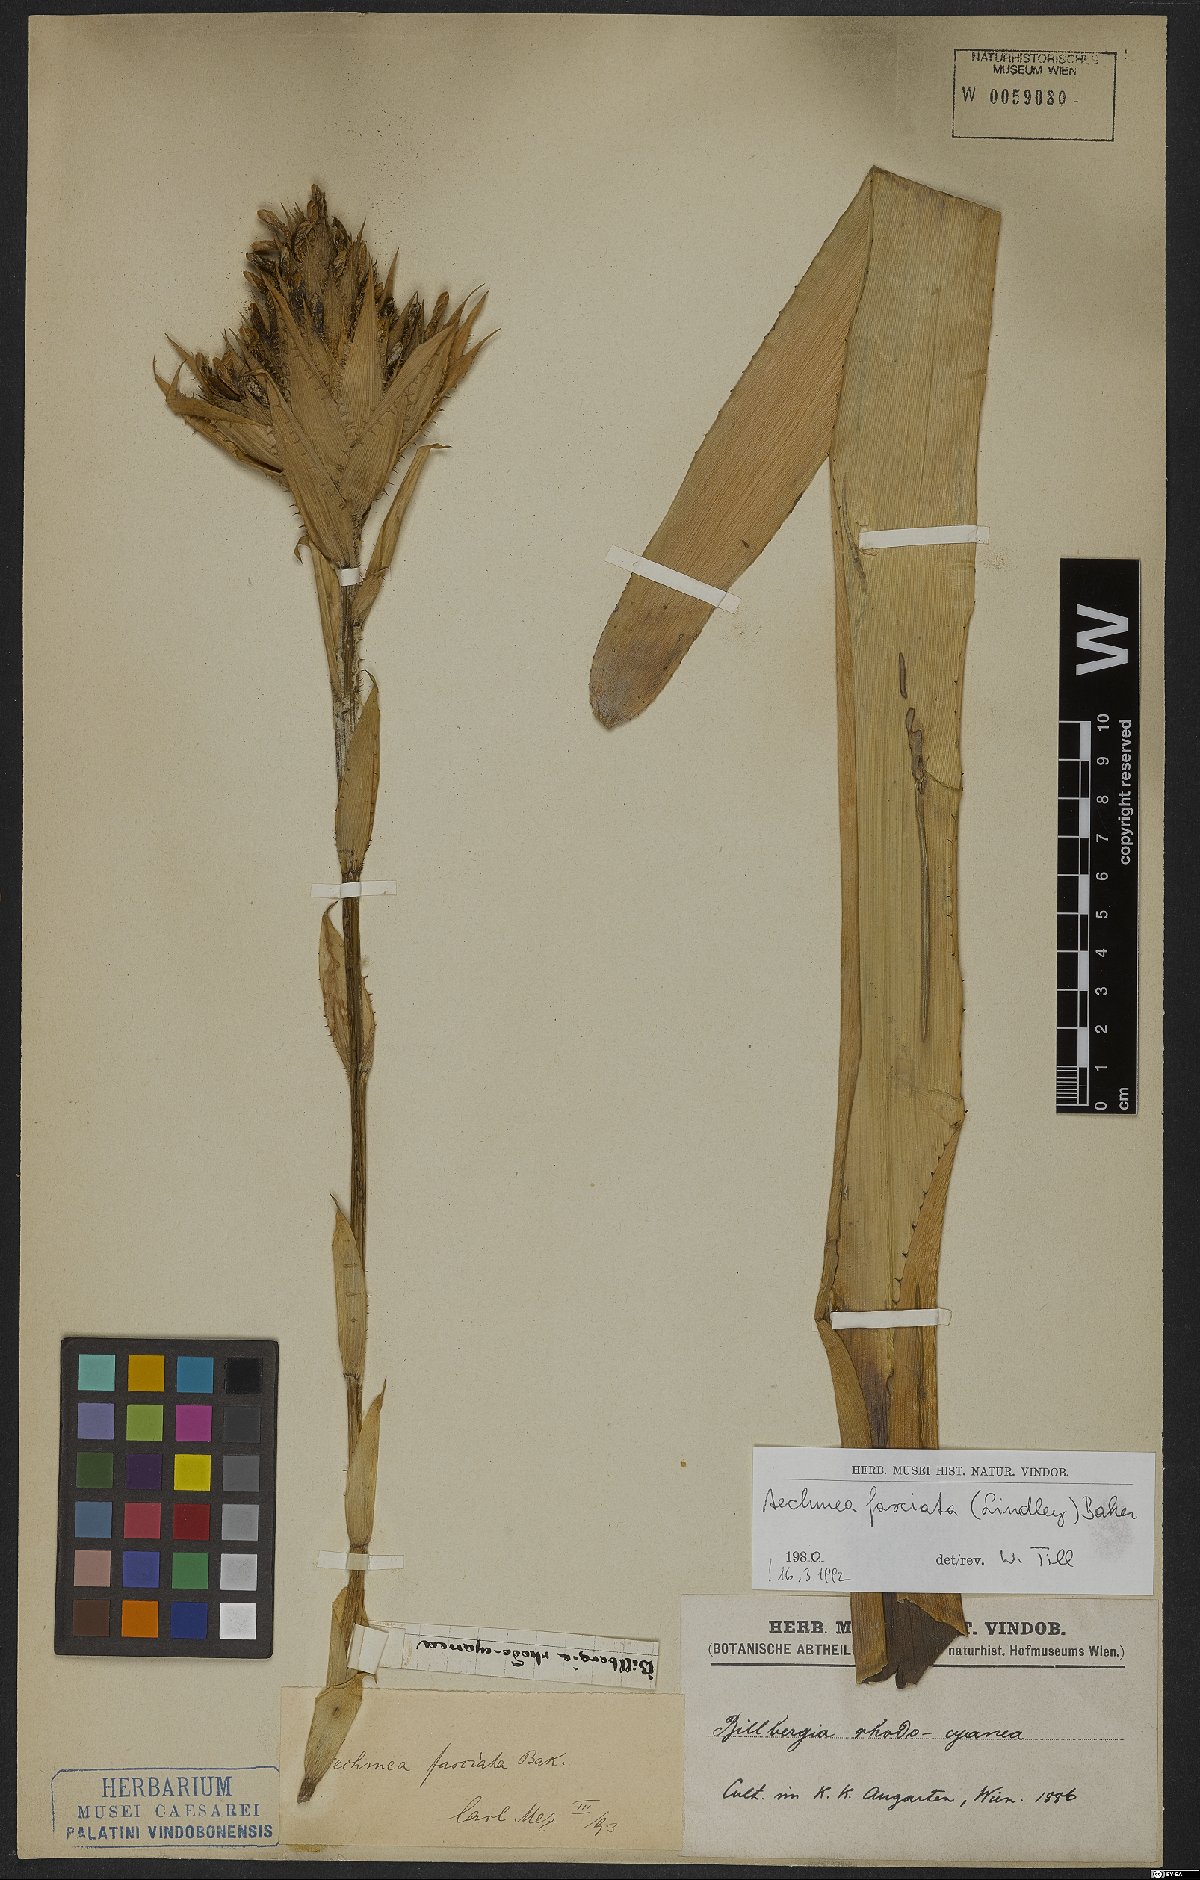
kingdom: Plantae
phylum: Tracheophyta
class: Liliopsida
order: Poales
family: Bromeliaceae
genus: Aechmea
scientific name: Aechmea fasciata
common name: Urnplant
